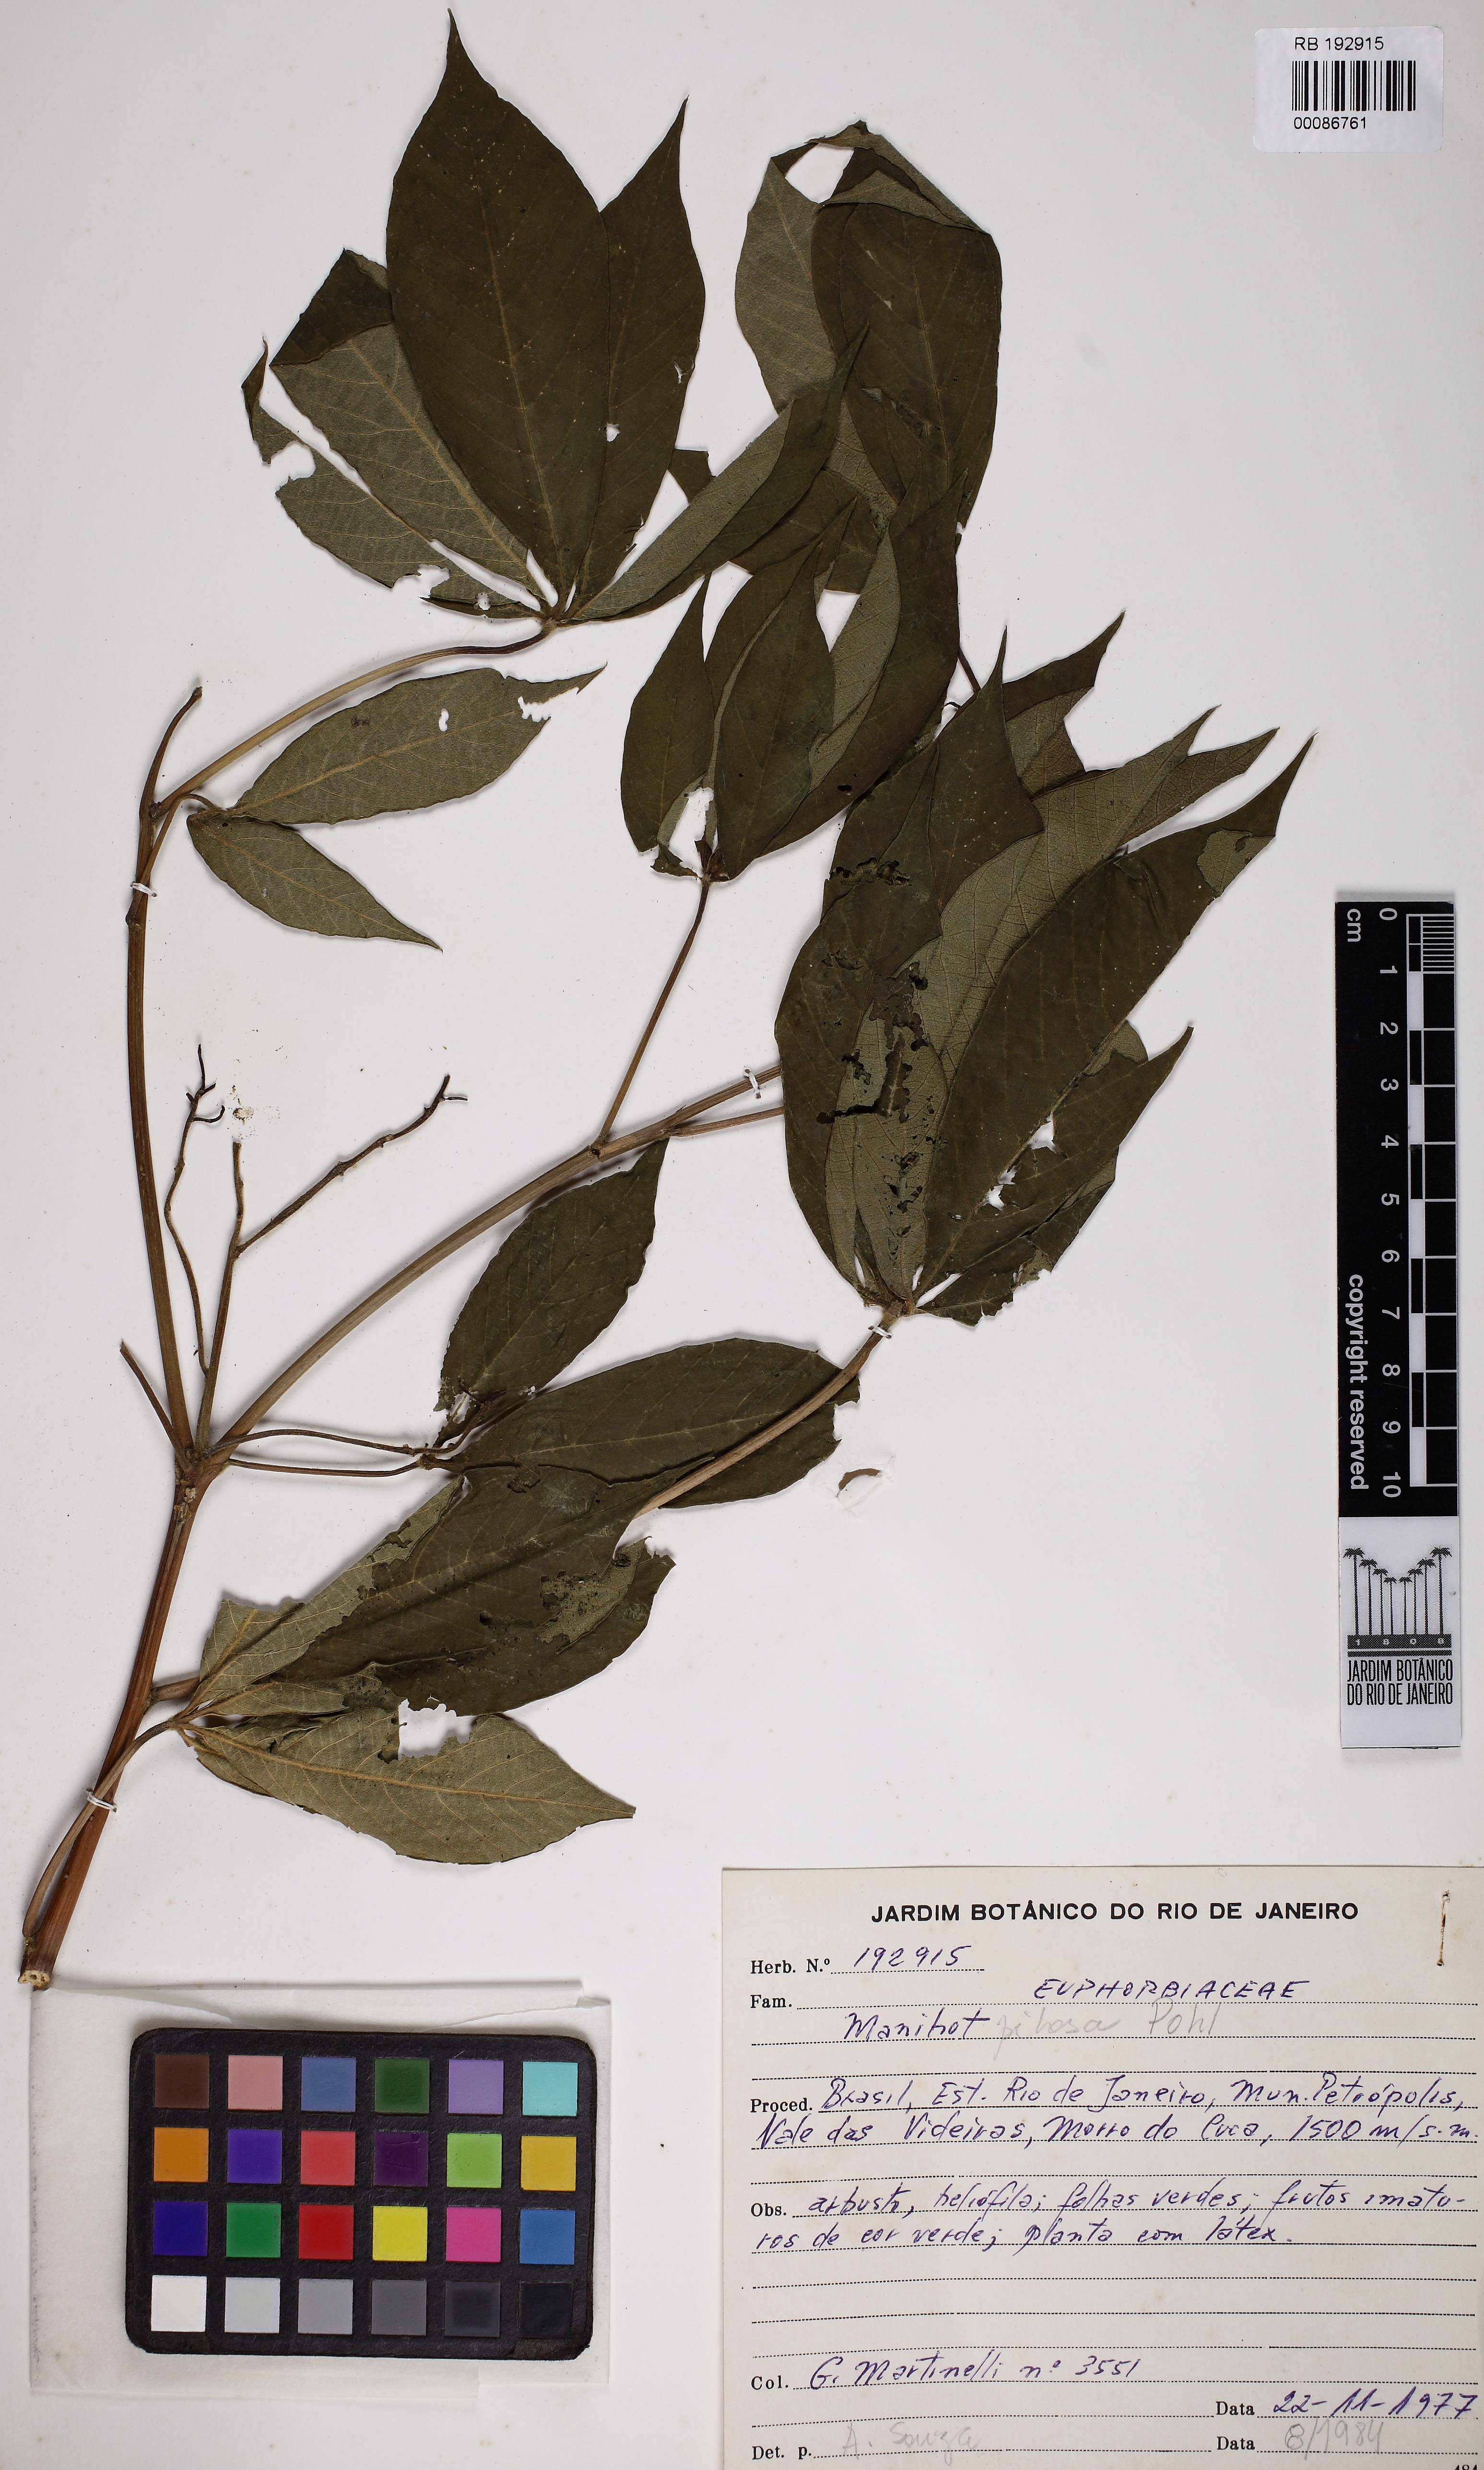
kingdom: Plantae
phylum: Tracheophyta
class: Magnoliopsida
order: Malpighiales
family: Euphorbiaceae
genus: Manihot
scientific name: Manihot jolyana
